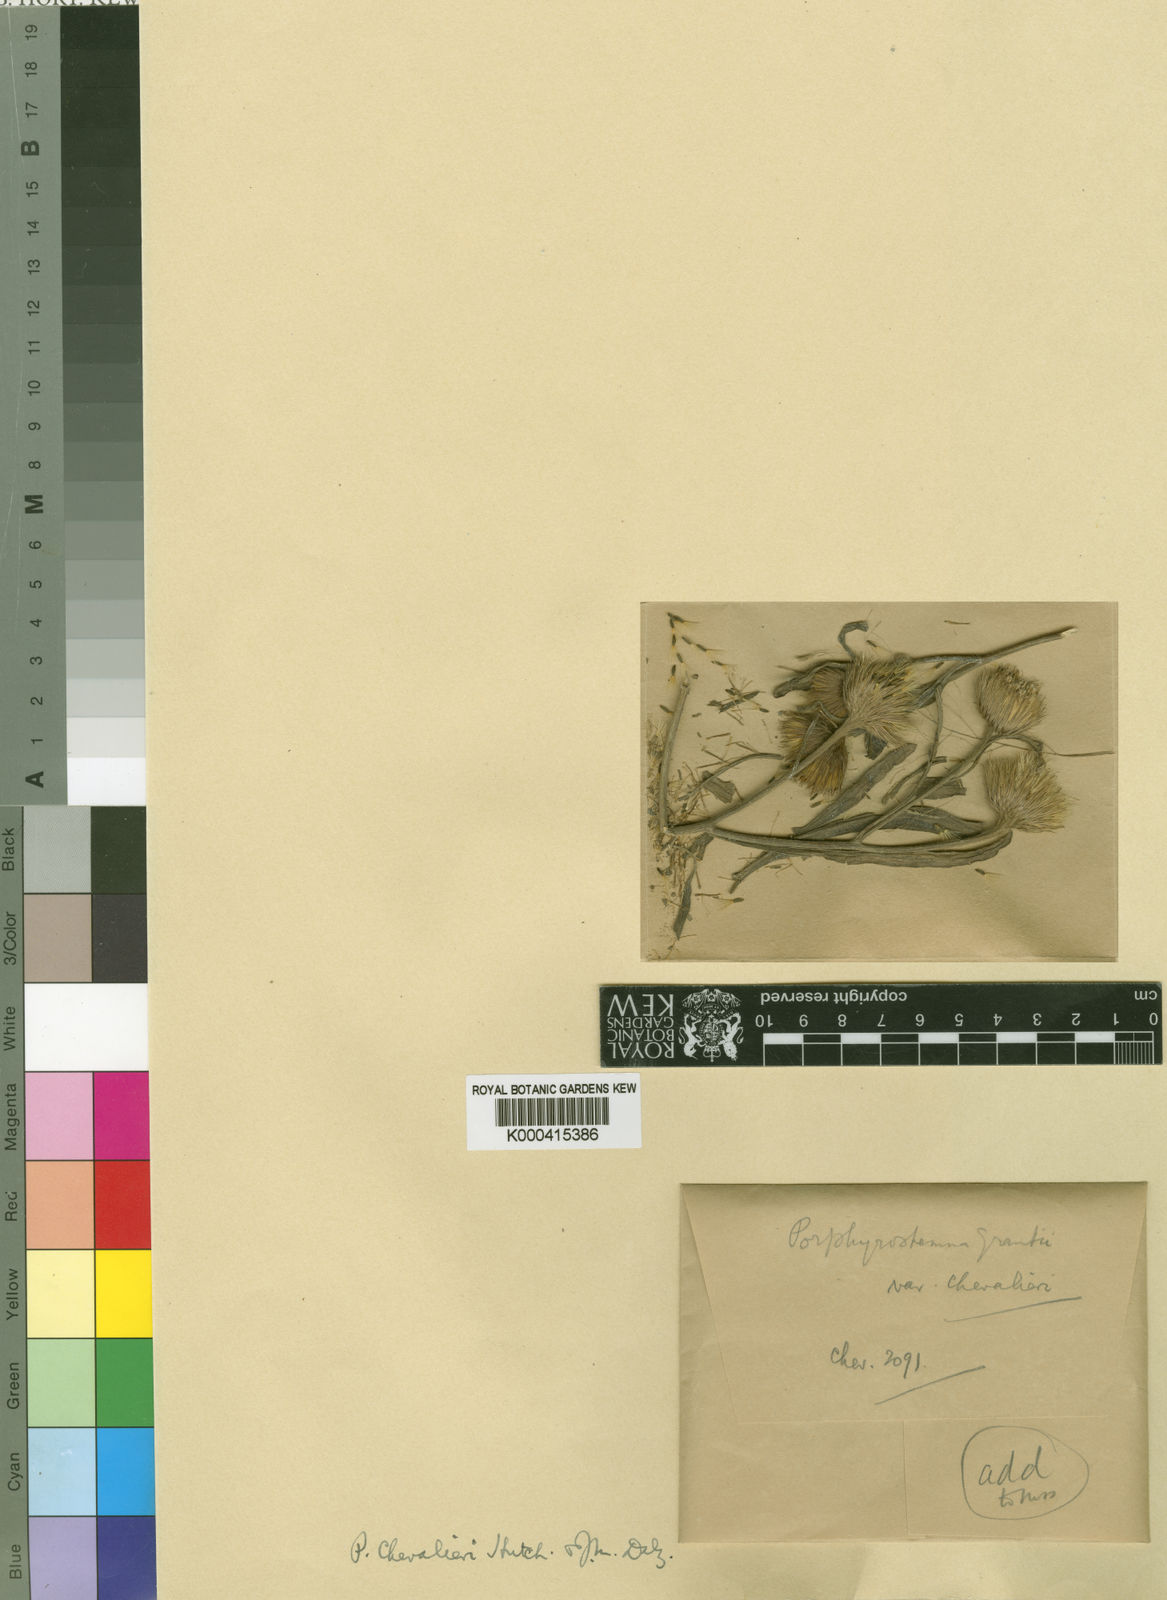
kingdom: Plantae
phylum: Tracheophyta
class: Magnoliopsida
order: Asterales
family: Asteraceae
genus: Porphyrostemma
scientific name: Porphyrostemma chevalieri
